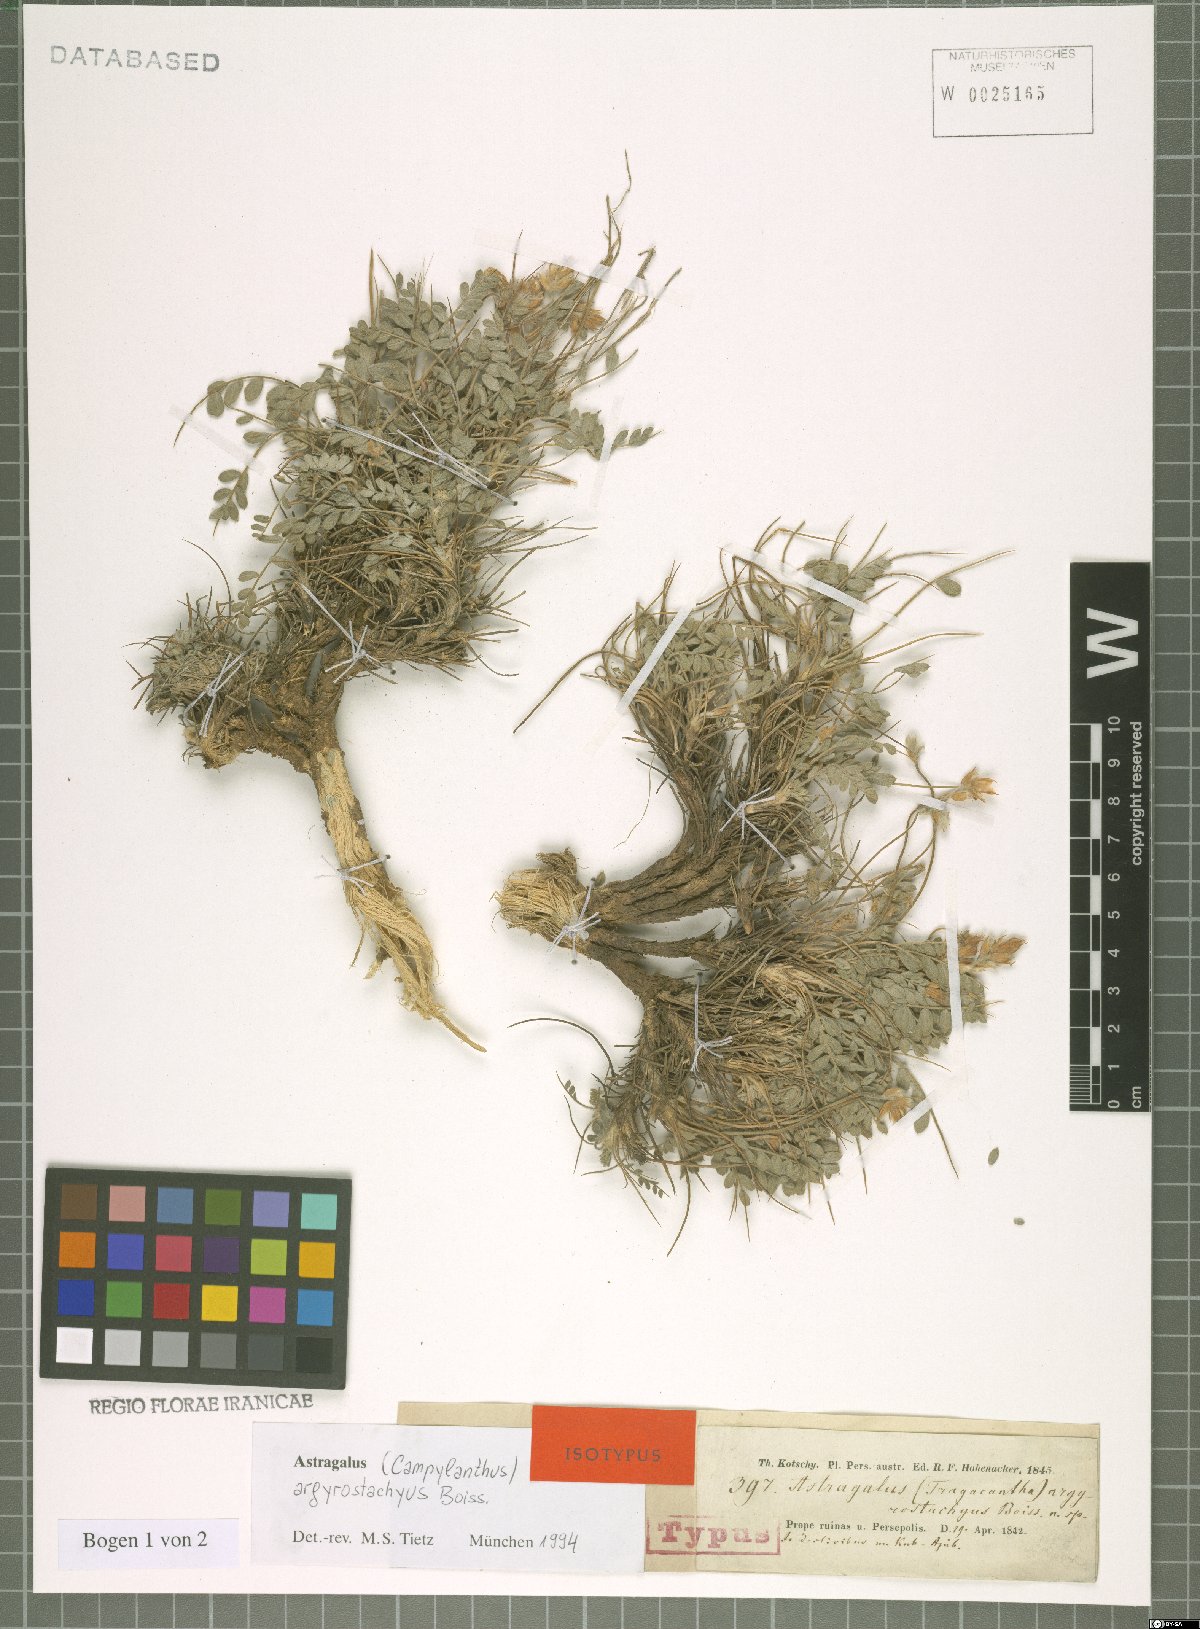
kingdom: Plantae
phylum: Tracheophyta
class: Magnoliopsida
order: Fabales
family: Fabaceae
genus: Astragalus
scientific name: Astragalus argyrostachyus
